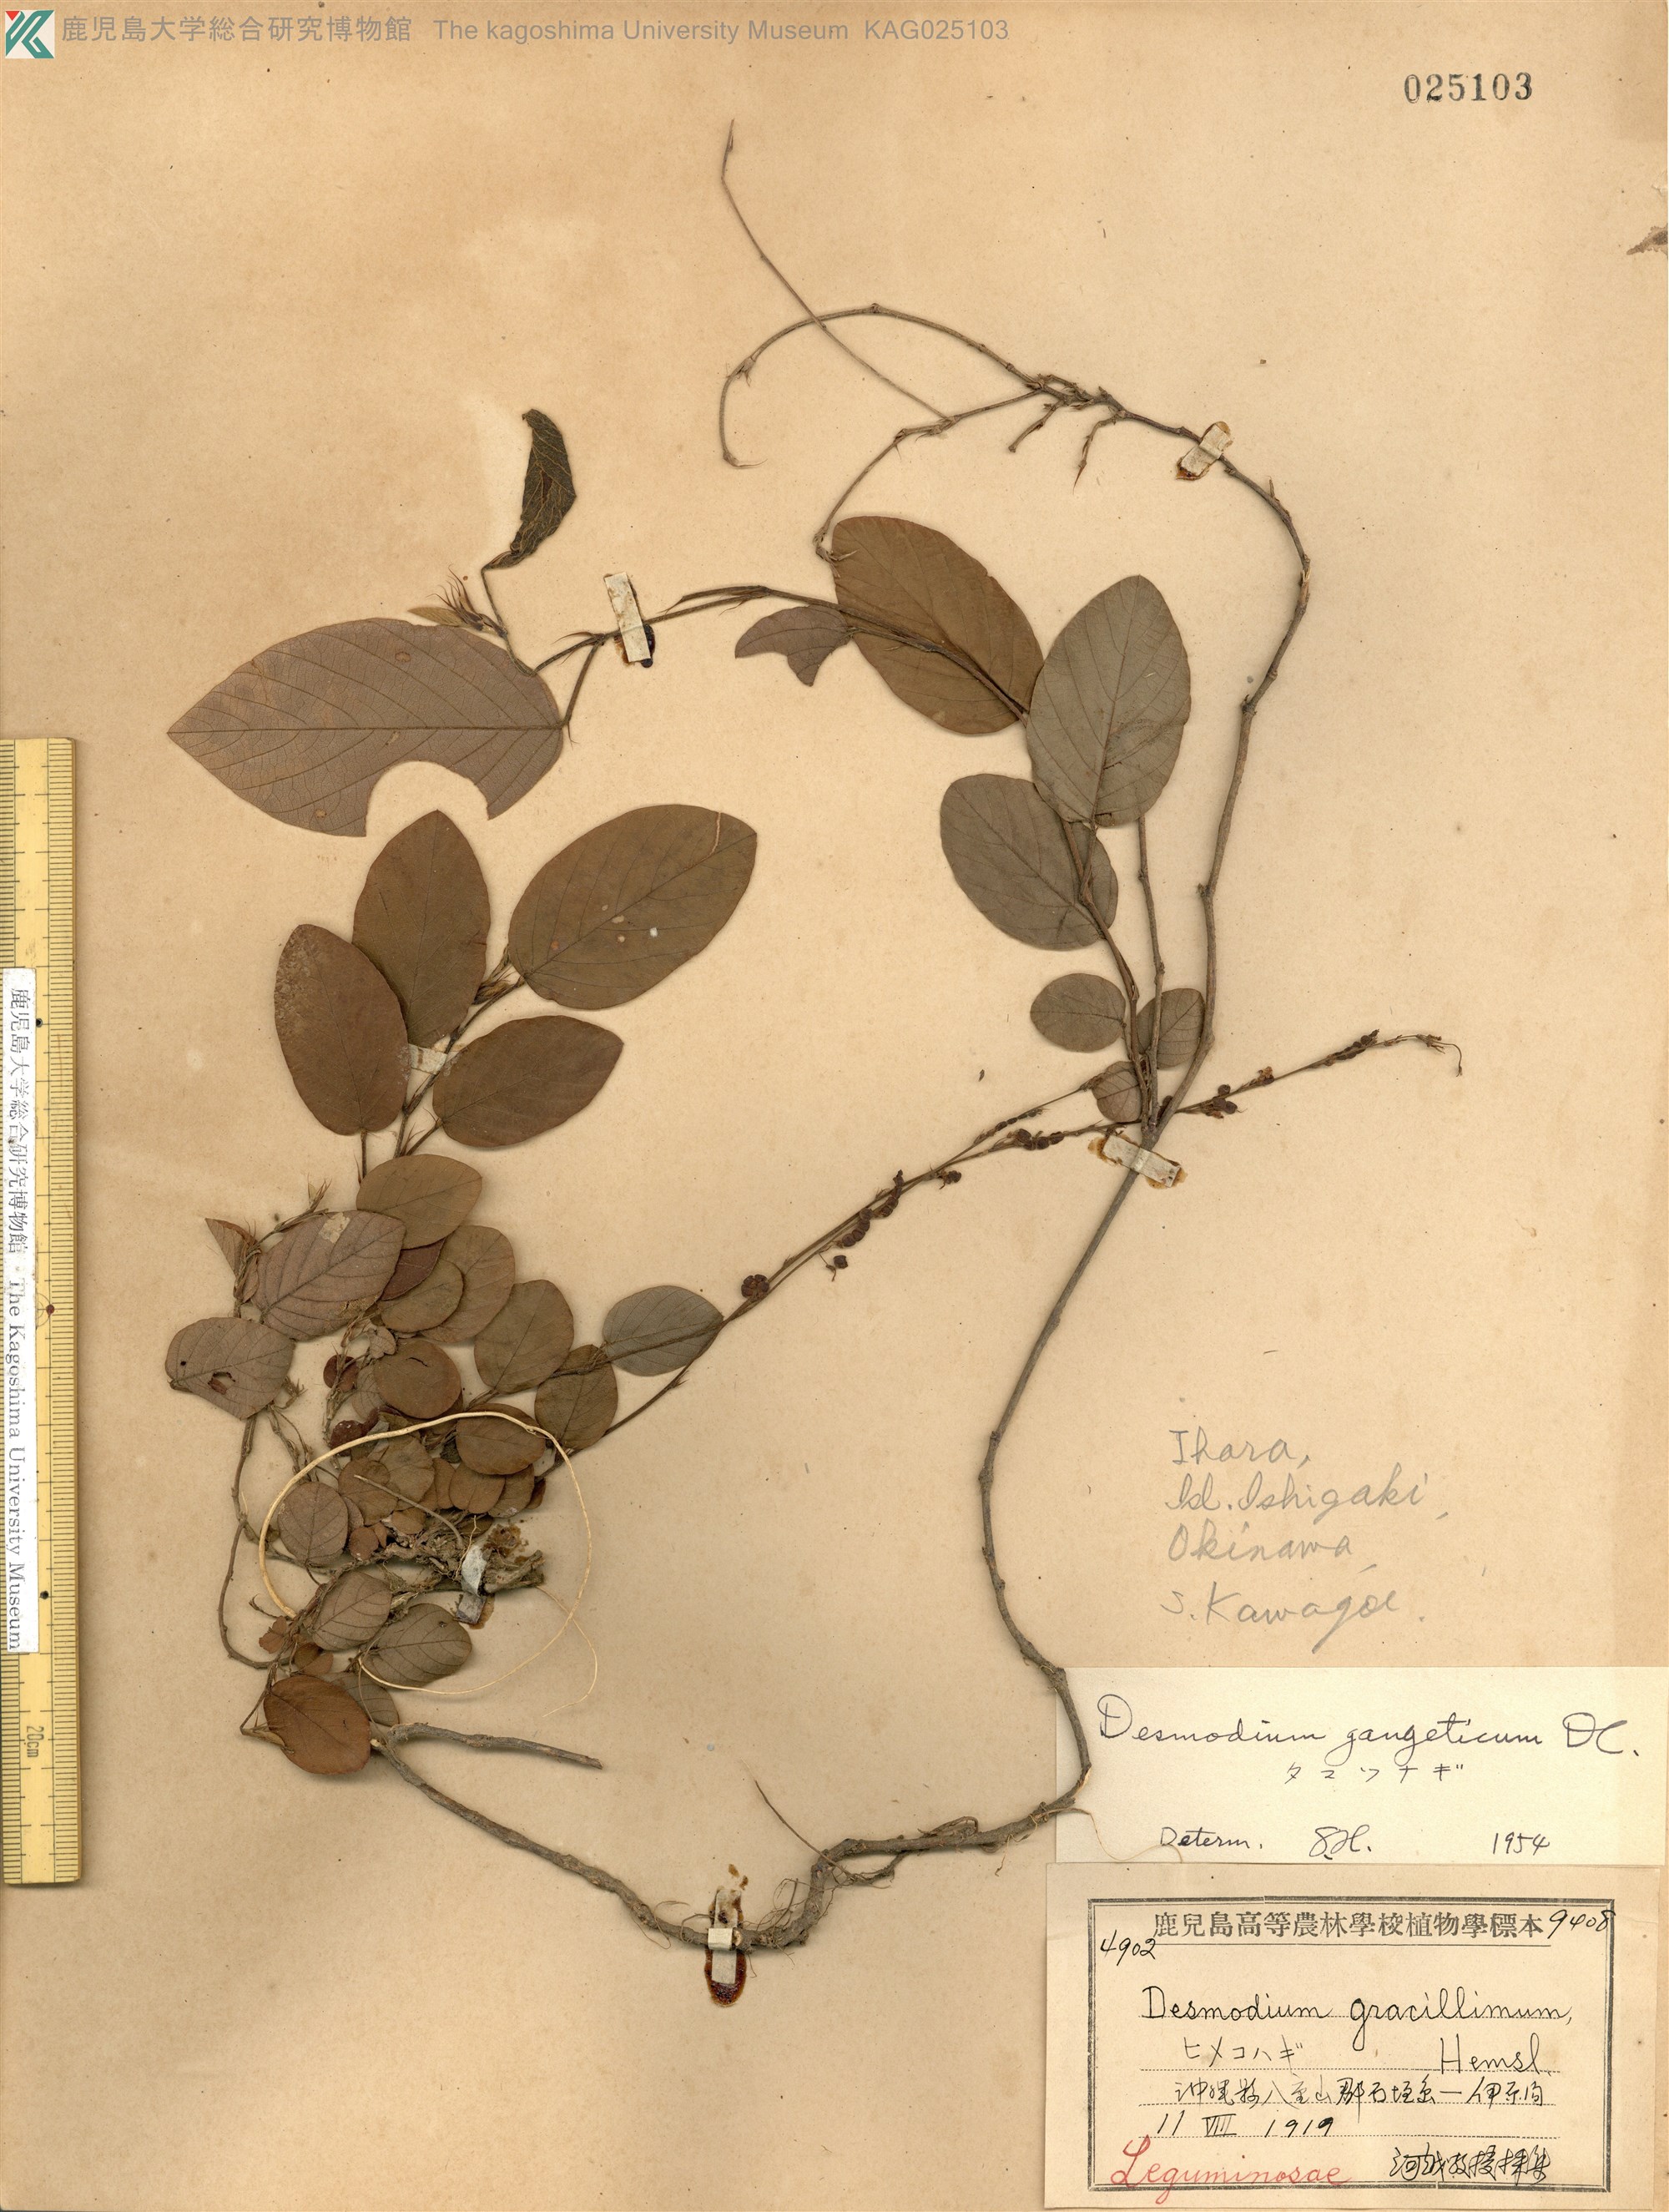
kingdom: Plantae
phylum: Tracheophyta
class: Magnoliopsida
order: Fabales
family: Fabaceae
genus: Pleurolobus
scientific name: Pleurolobus gangeticus
